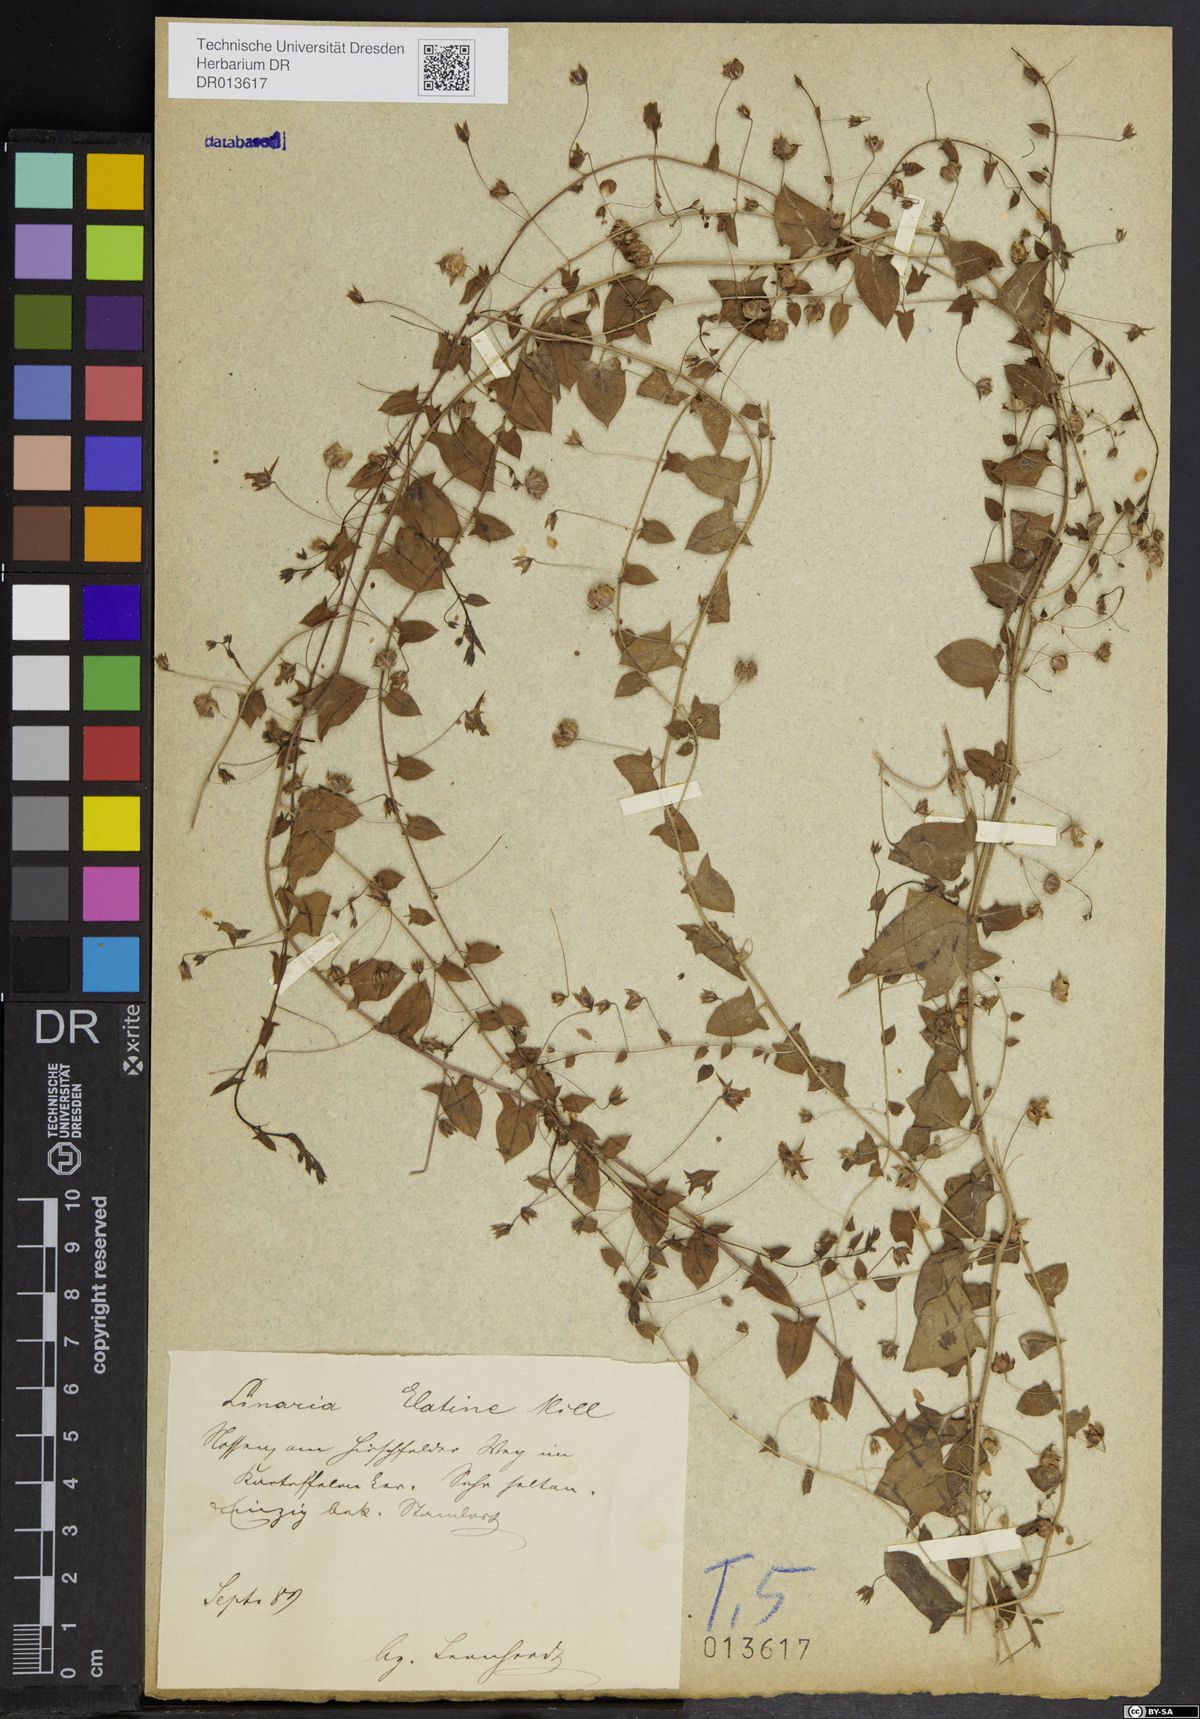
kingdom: Plantae
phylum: Tracheophyta
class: Magnoliopsida
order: Lamiales
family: Plantaginaceae
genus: Kickxia
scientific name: Kickxia elatine
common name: Sharp-leaved fluellen
